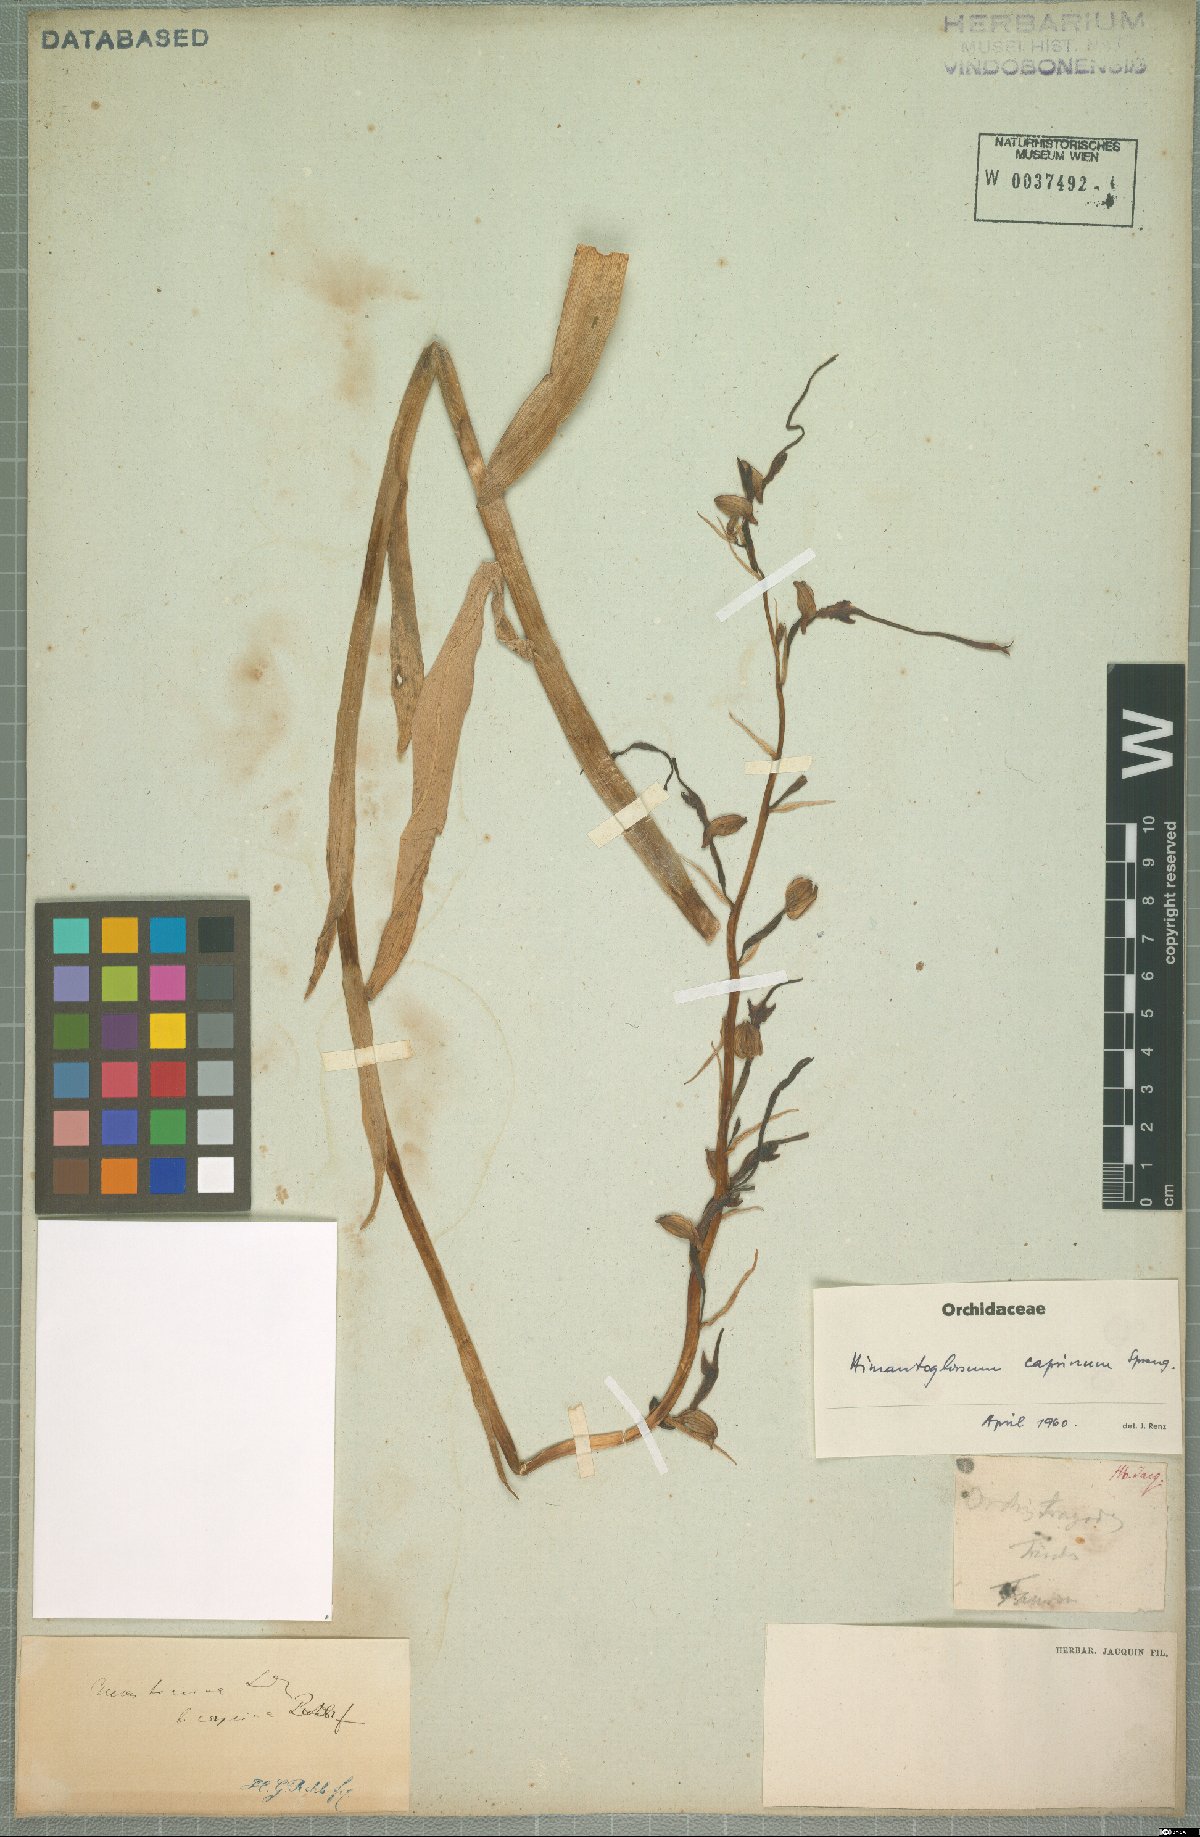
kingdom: Plantae
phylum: Tracheophyta
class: Liliopsida
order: Asparagales
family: Orchidaceae
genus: Himantoglossum
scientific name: Himantoglossum caprinum
